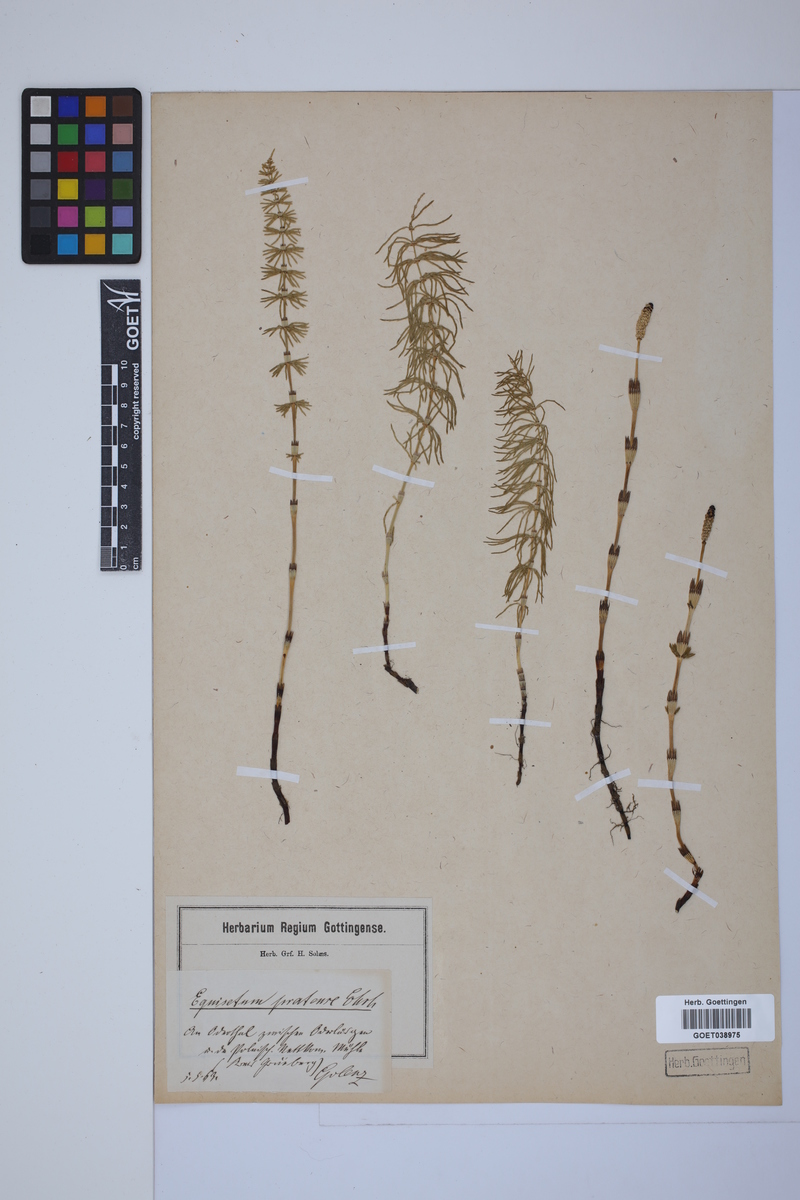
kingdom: Plantae
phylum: Tracheophyta
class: Polypodiopsida
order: Equisetales
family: Equisetaceae
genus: Equisetum
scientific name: Equisetum pratense
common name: Meadow horsetail
